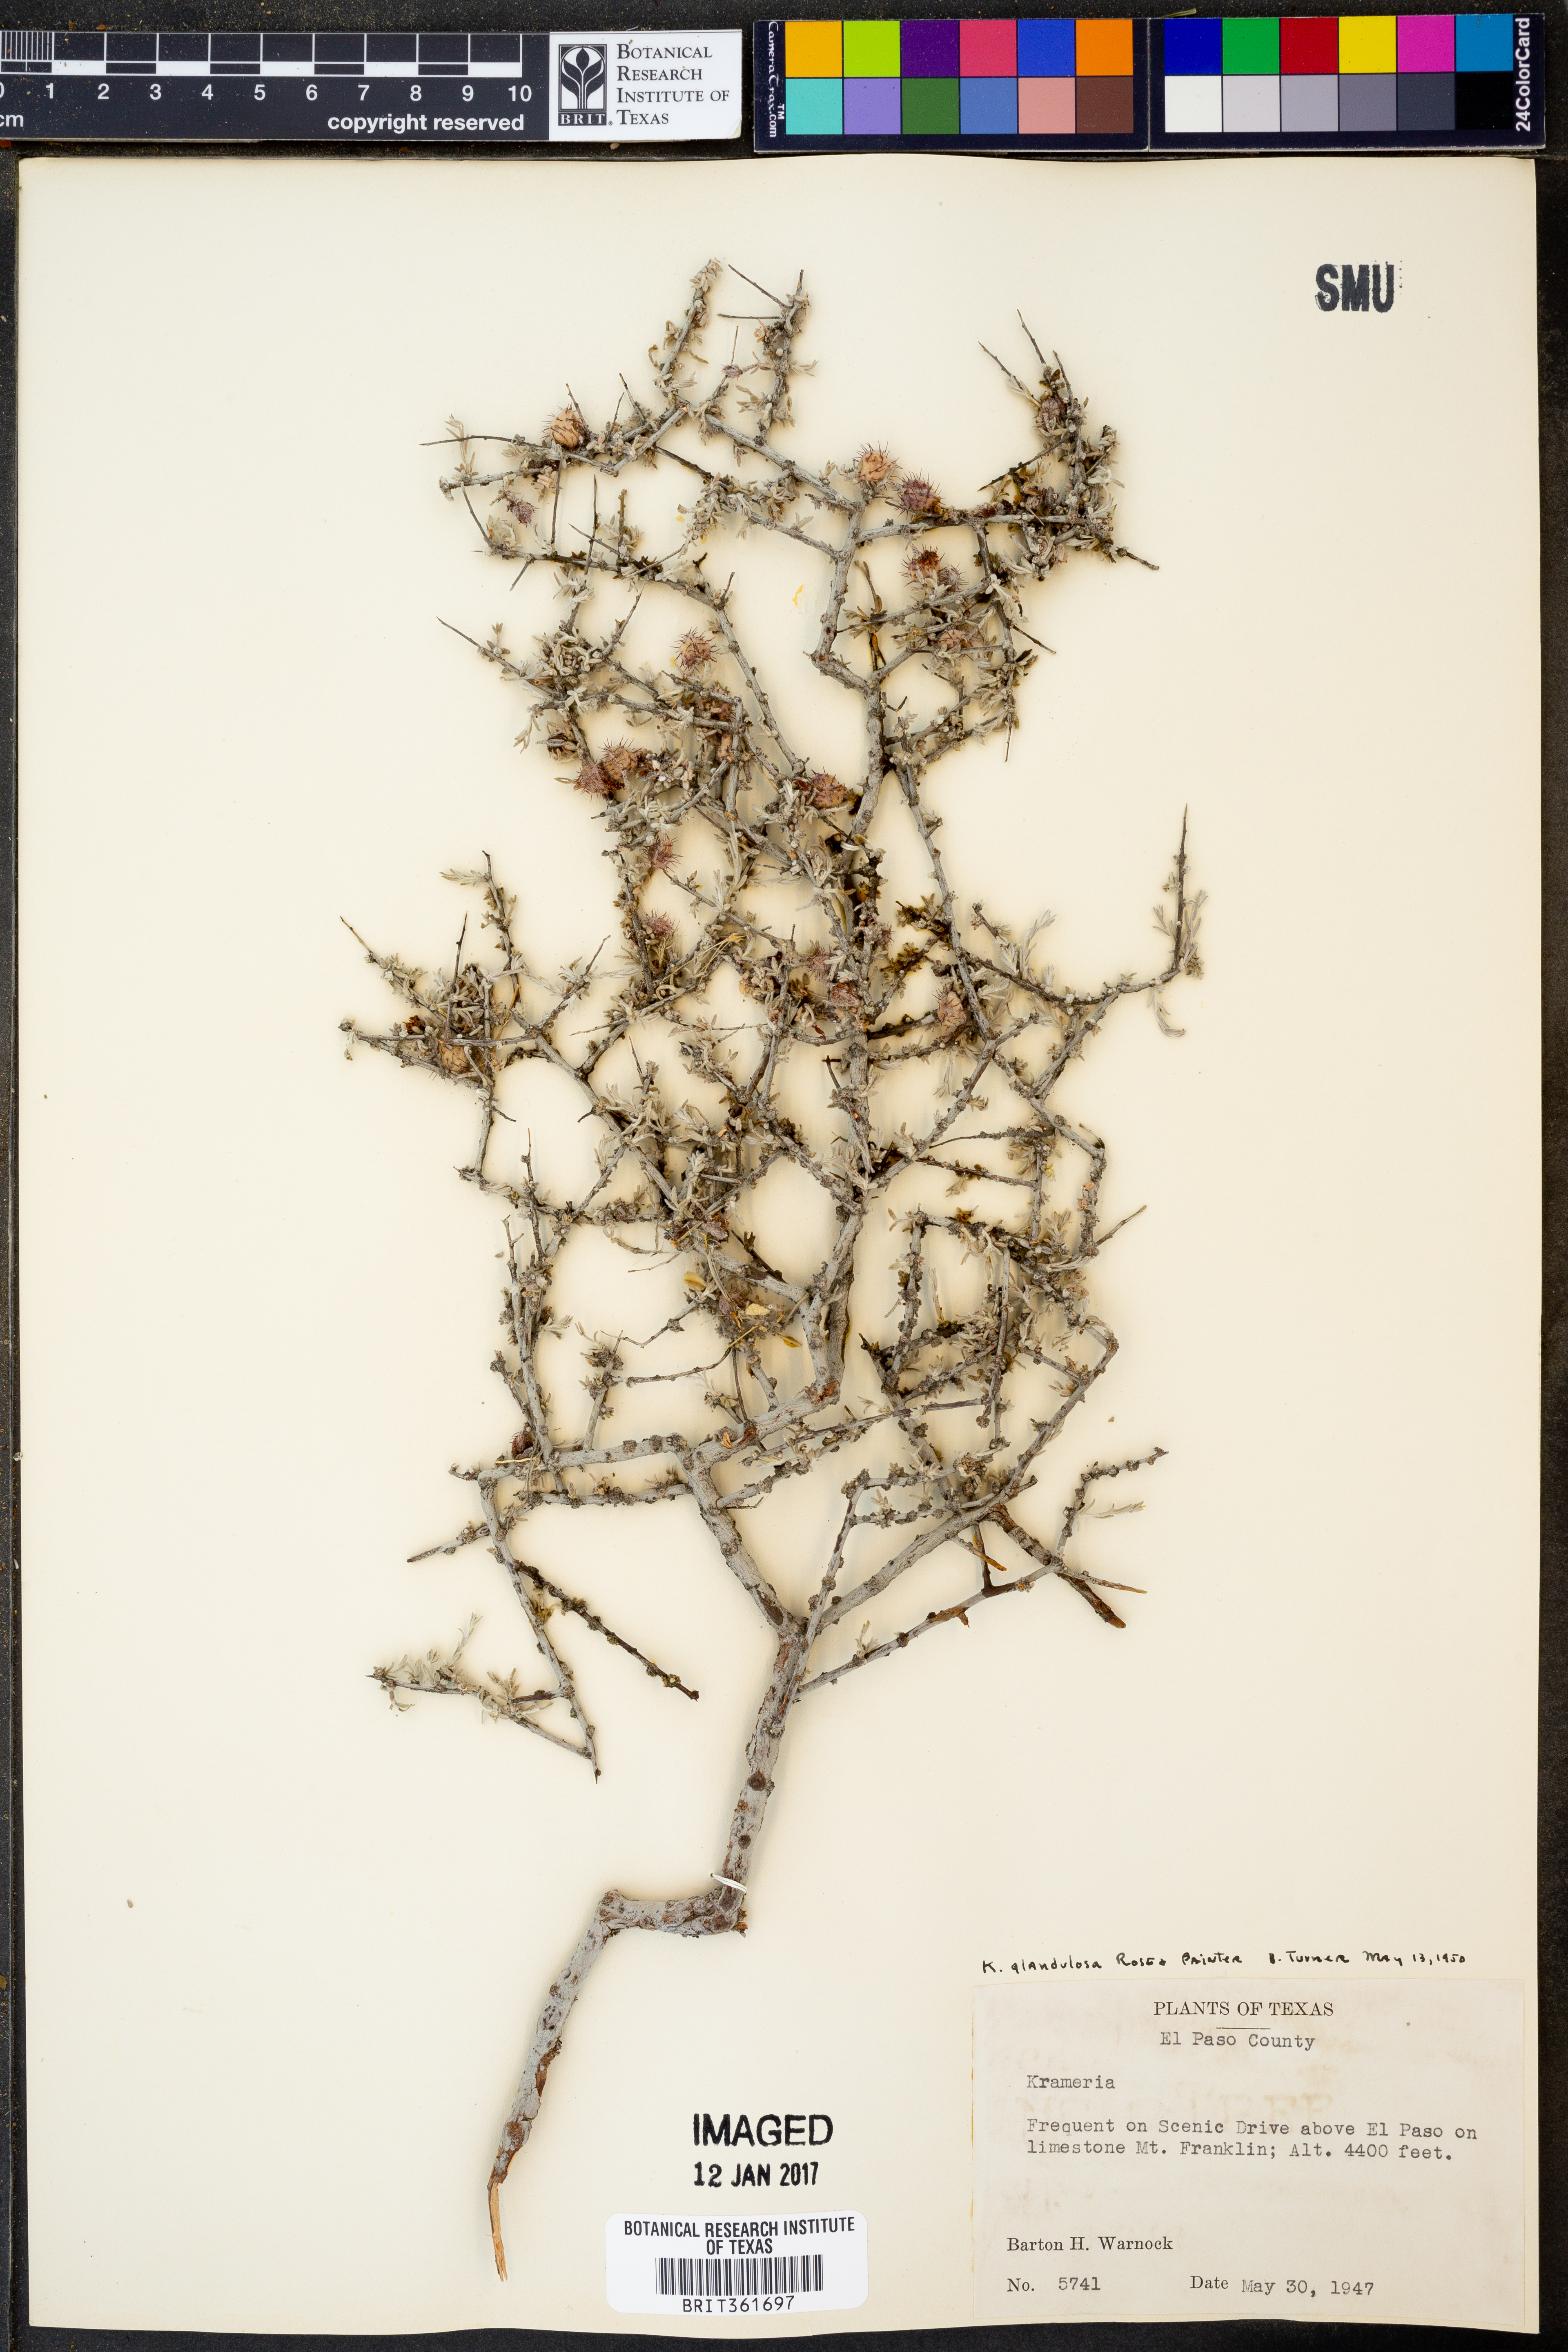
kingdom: Plantae
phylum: Tracheophyta
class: Magnoliopsida
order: Zygophyllales
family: Krameriaceae
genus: Krameria
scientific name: Krameria erecta
